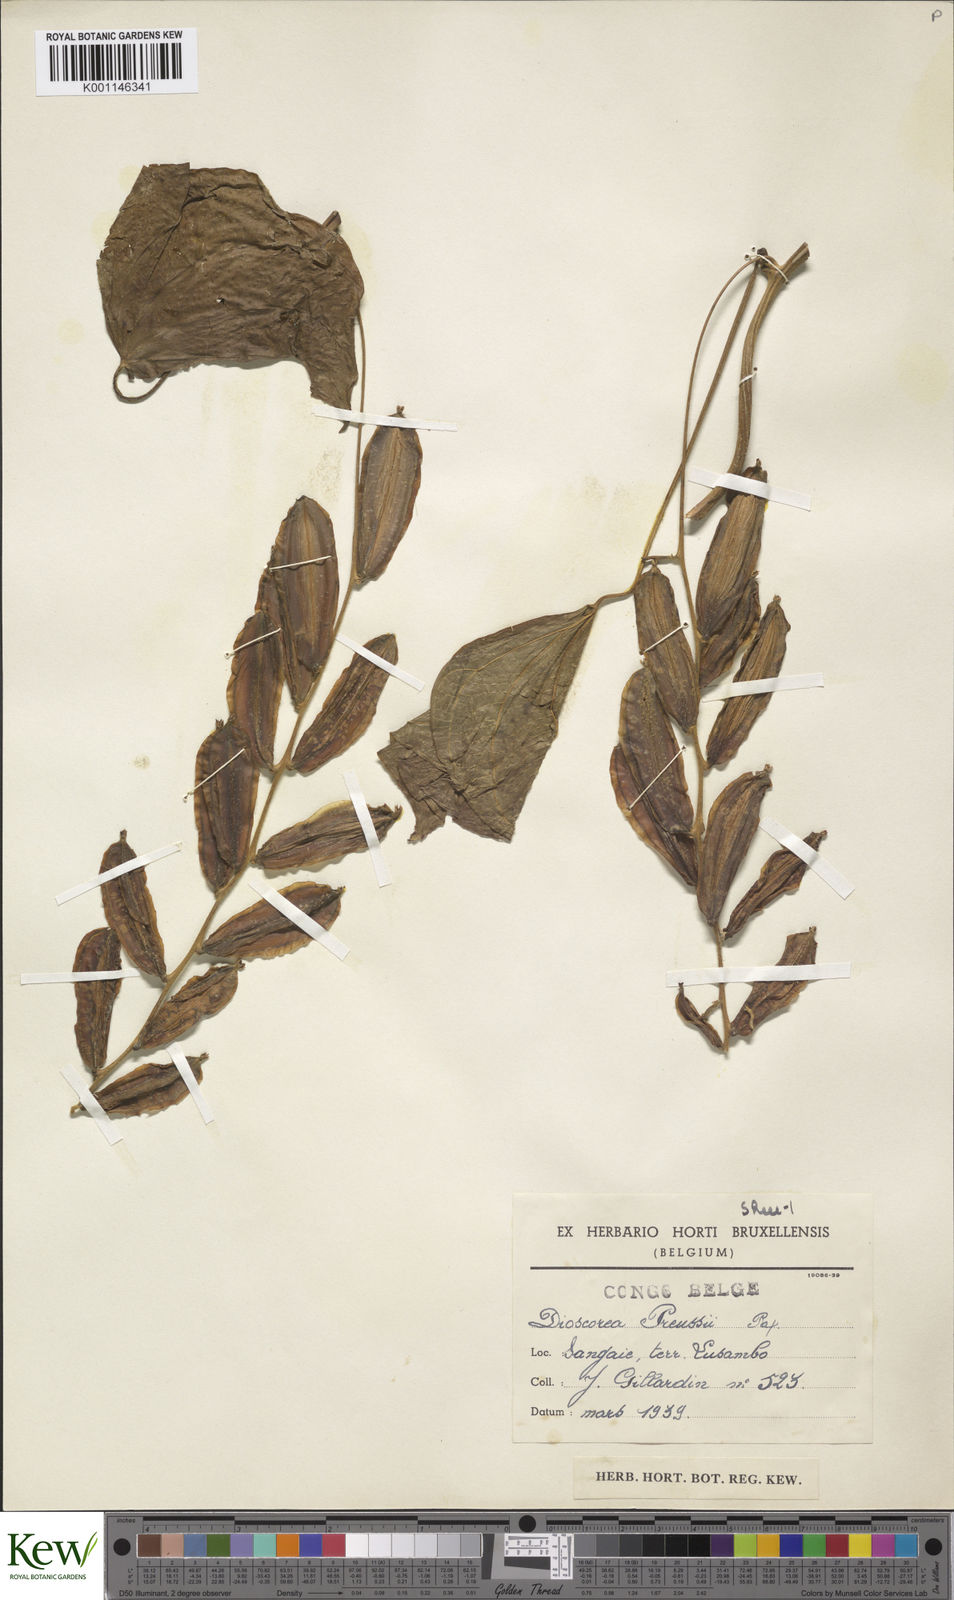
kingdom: Plantae
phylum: Tracheophyta
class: Liliopsida
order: Dioscoreales
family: Dioscoreaceae
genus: Dioscorea
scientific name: Dioscorea preussii
